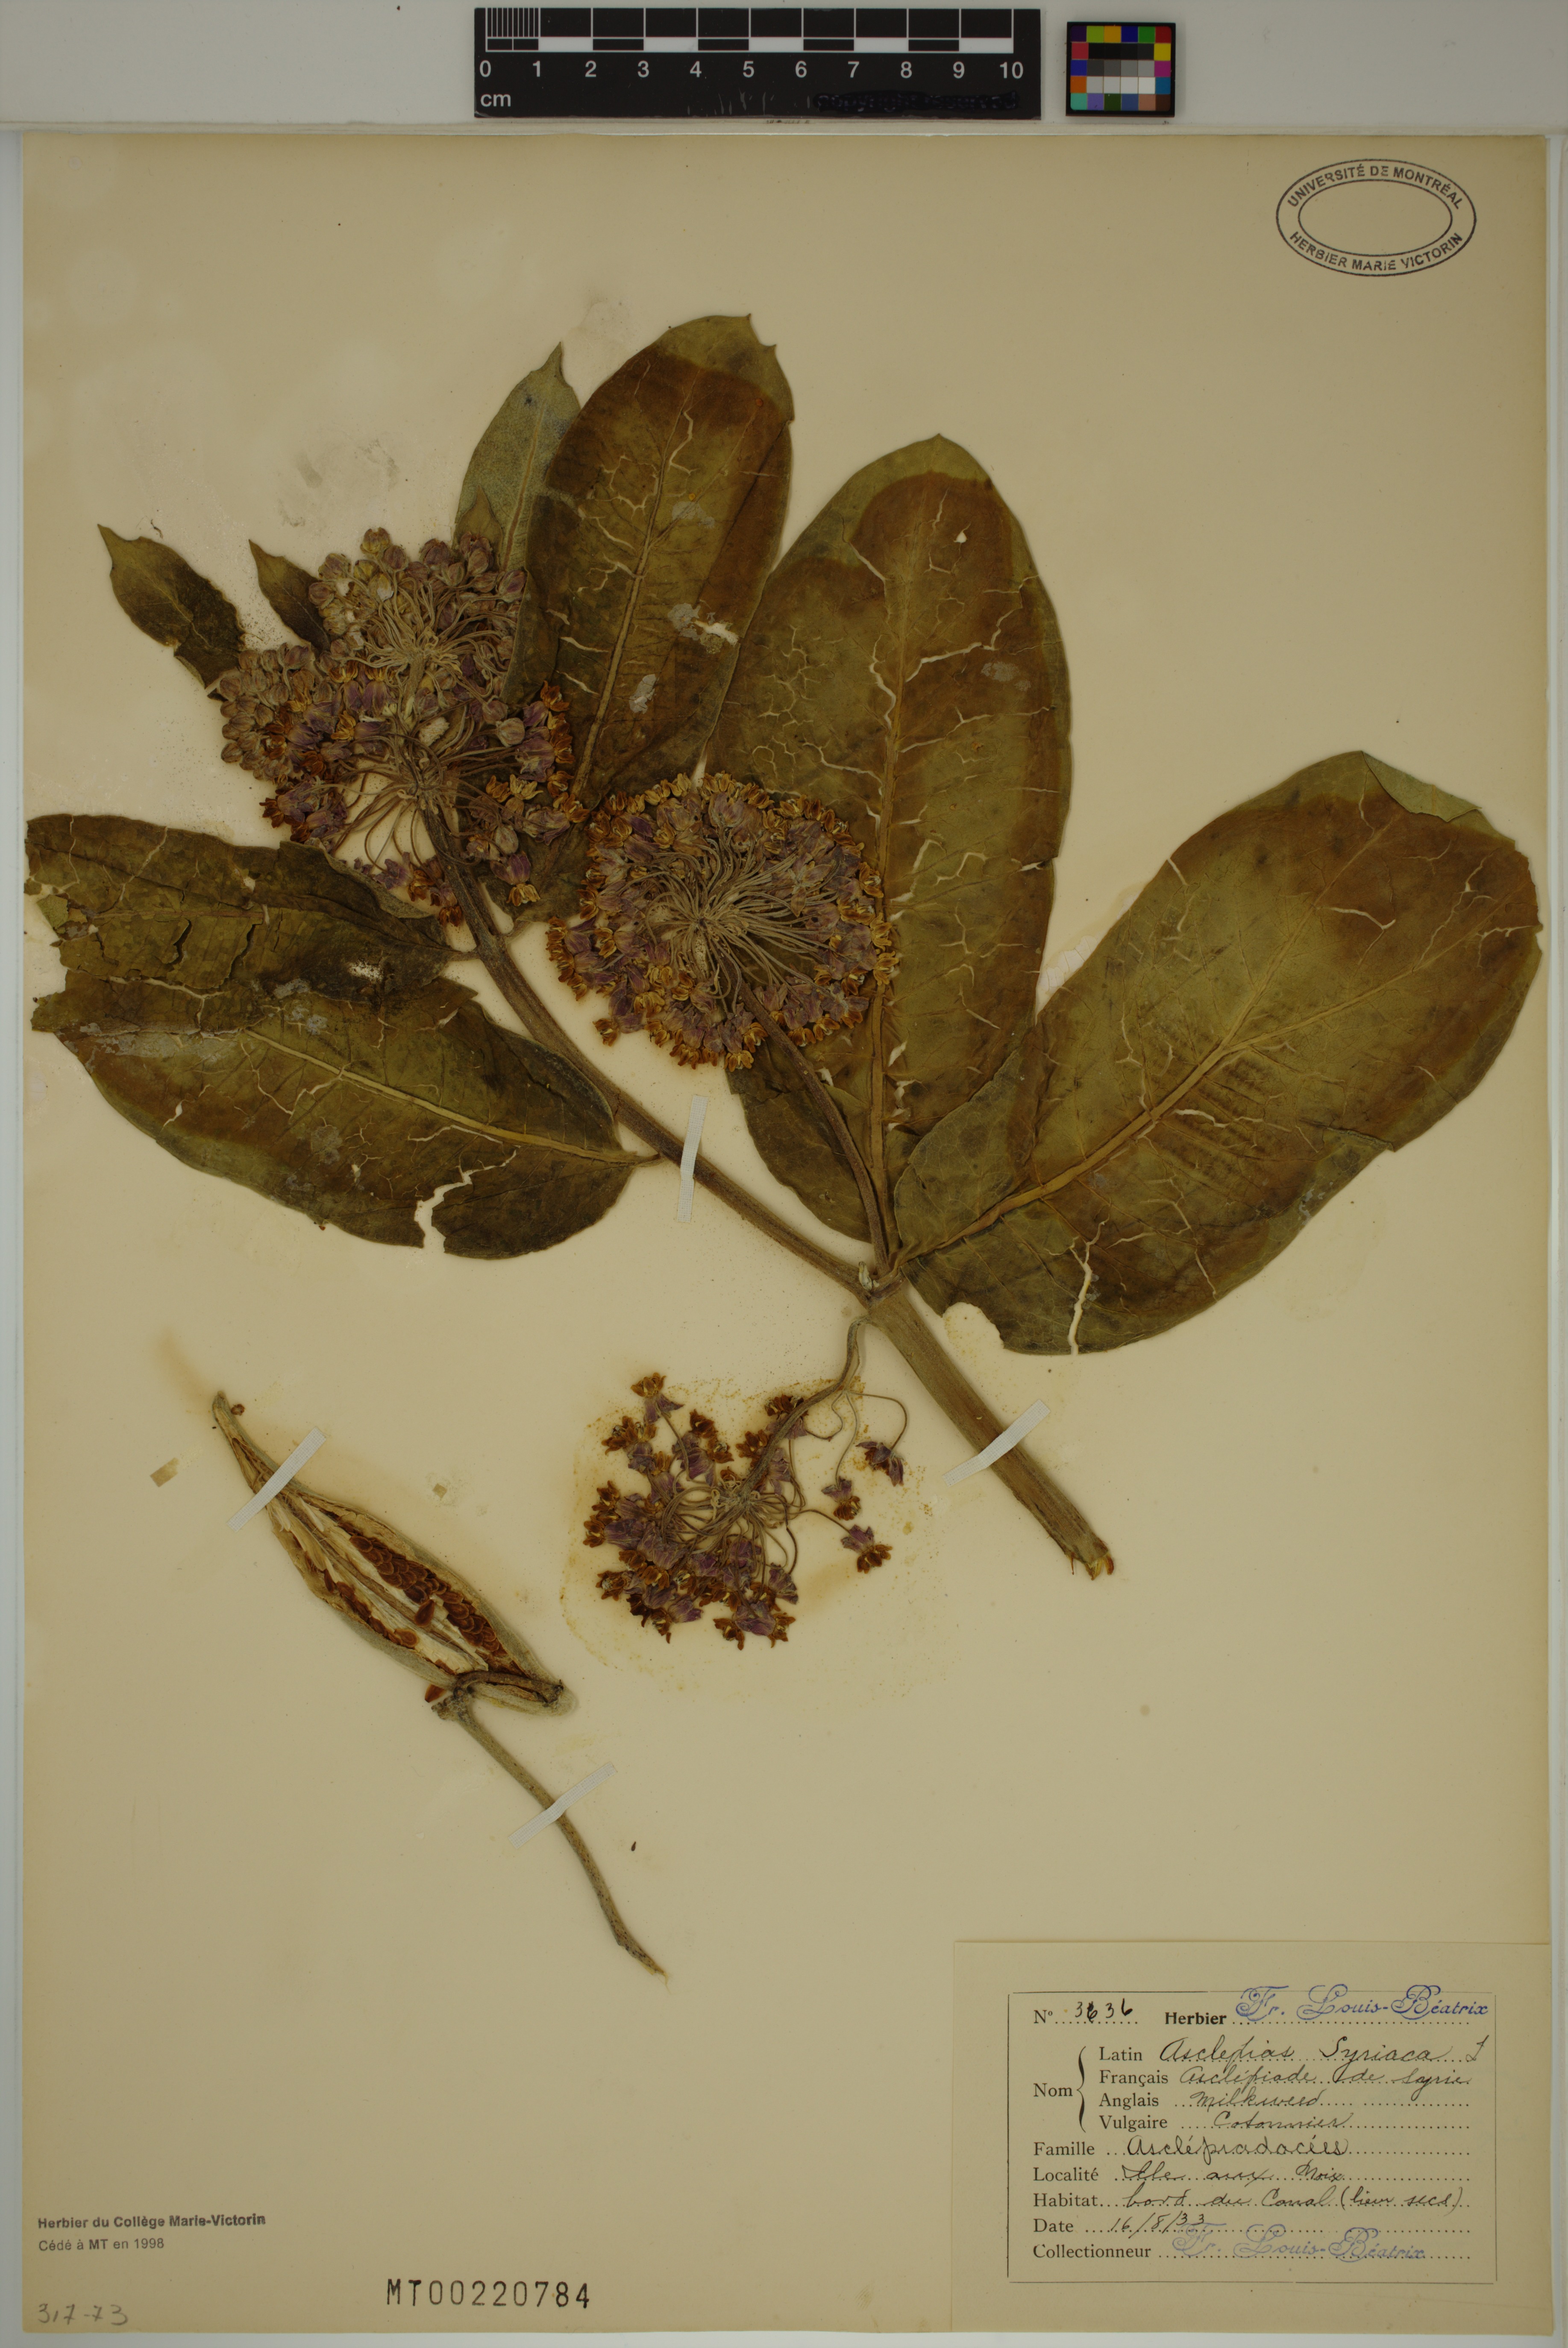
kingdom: Plantae
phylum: Tracheophyta
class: Magnoliopsida
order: Gentianales
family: Apocynaceae
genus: Asclepias
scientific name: Asclepias syriaca
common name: Common milkweed
